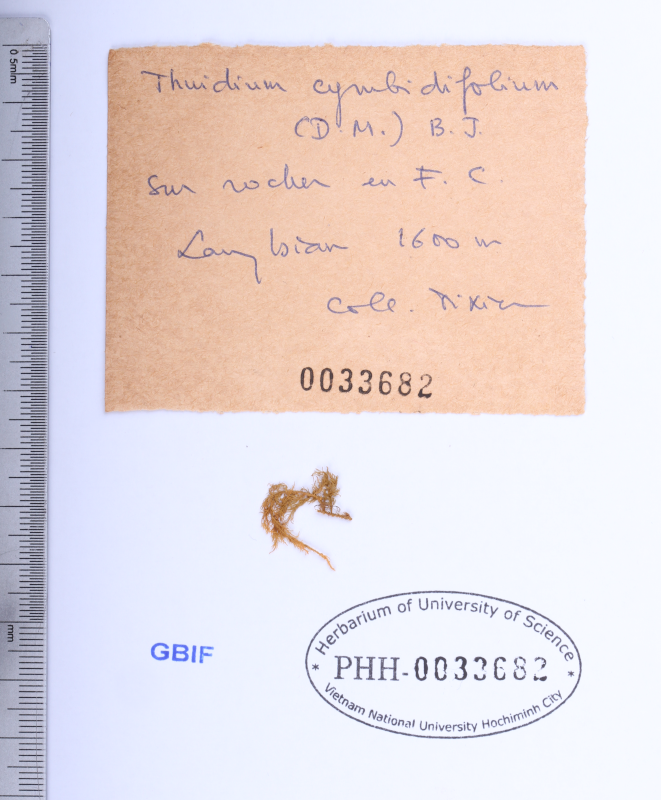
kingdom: Plantae
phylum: Bryophyta
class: Bryopsida
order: Hypnales
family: Thuidiaceae
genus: Thuidium
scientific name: Thuidium cymbifolium
